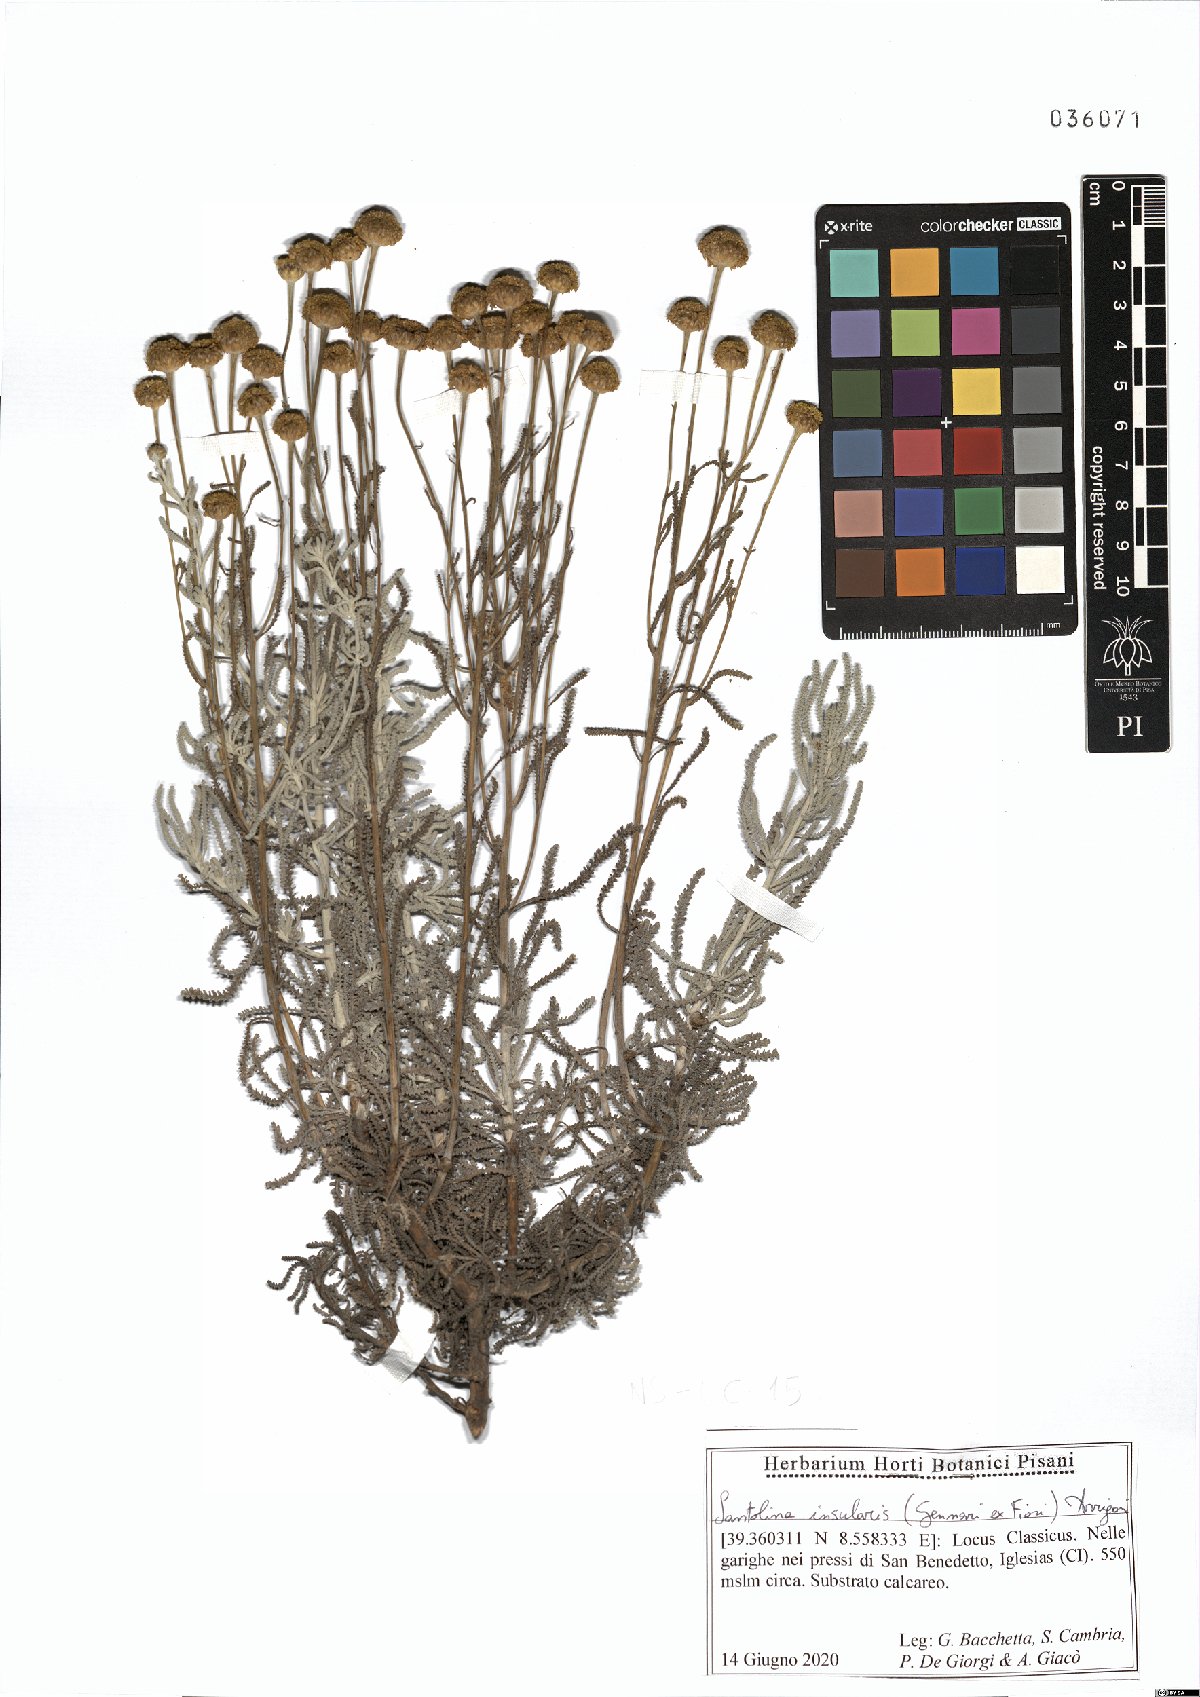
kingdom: Plantae
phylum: Tracheophyta
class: Magnoliopsida
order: Asterales
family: Asteraceae
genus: Santolina
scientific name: Santolina insularis
